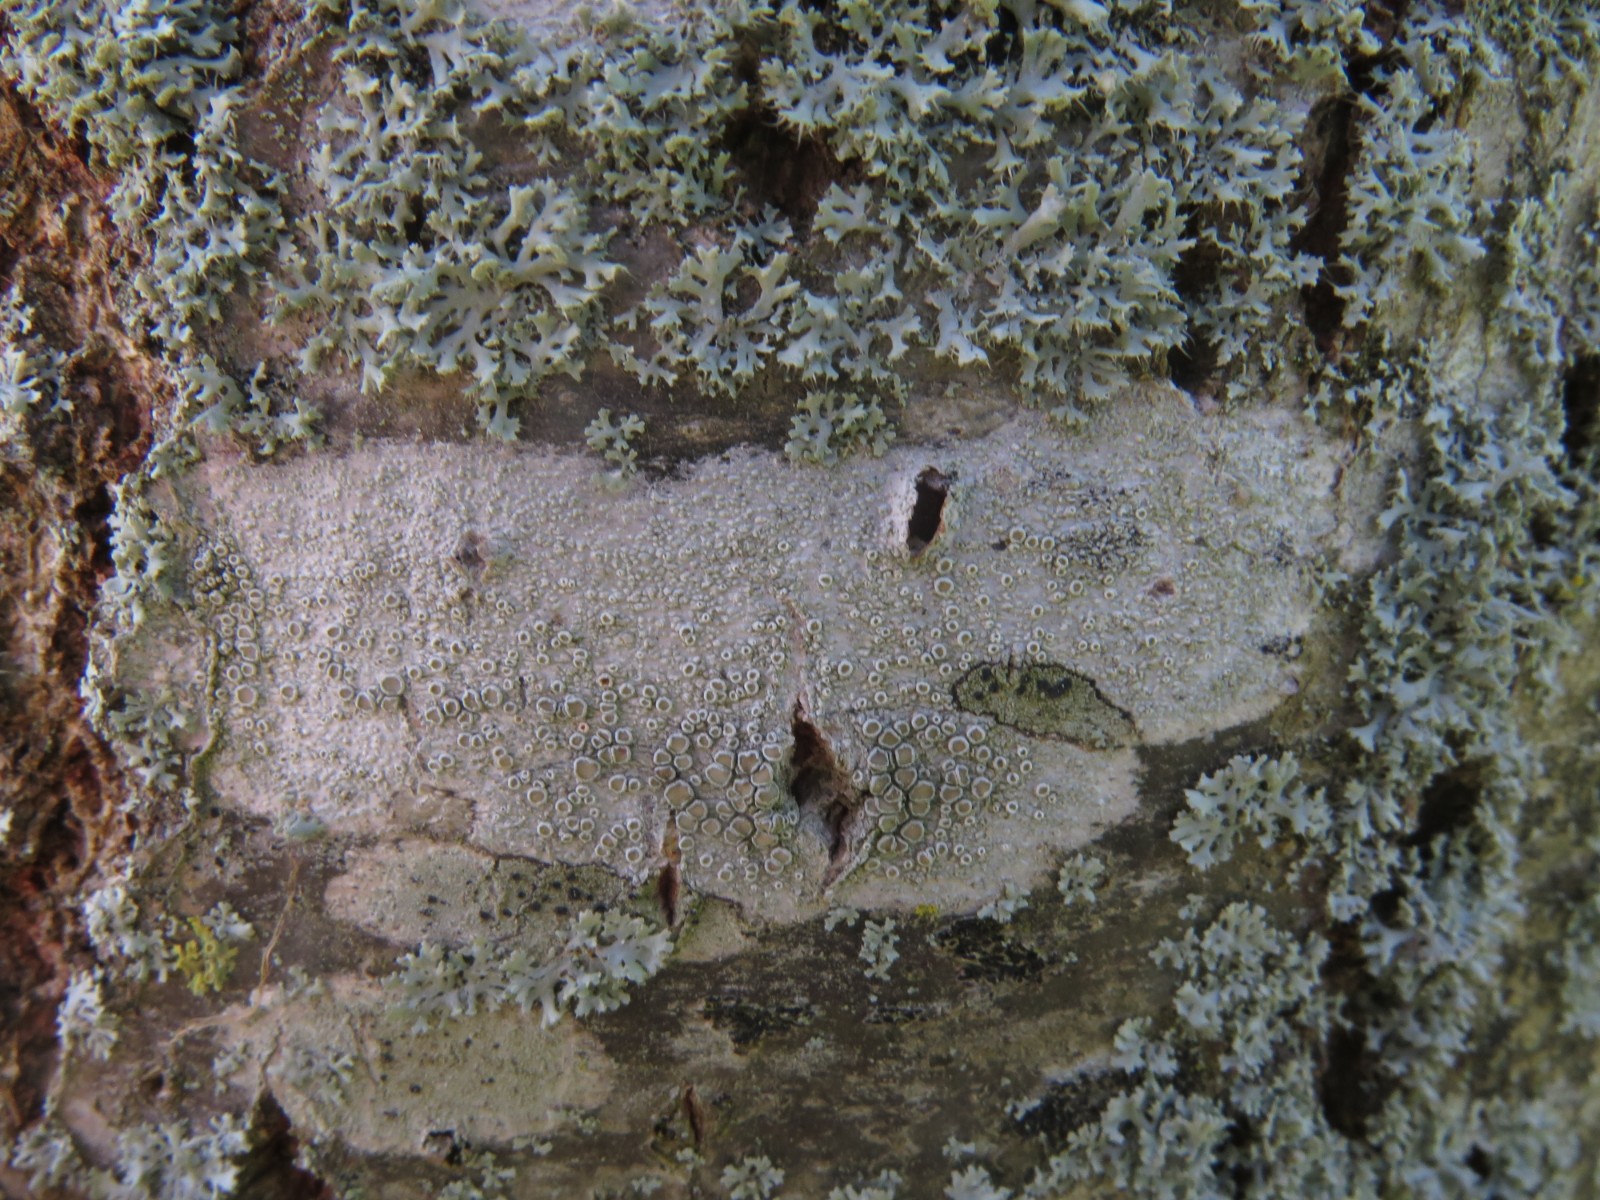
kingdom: Fungi
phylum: Ascomycota
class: Lecanoromycetes
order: Lecanorales
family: Lecanoraceae
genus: Glaucomaria
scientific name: Glaucomaria carpinea
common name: hviddugget kantskivelav
